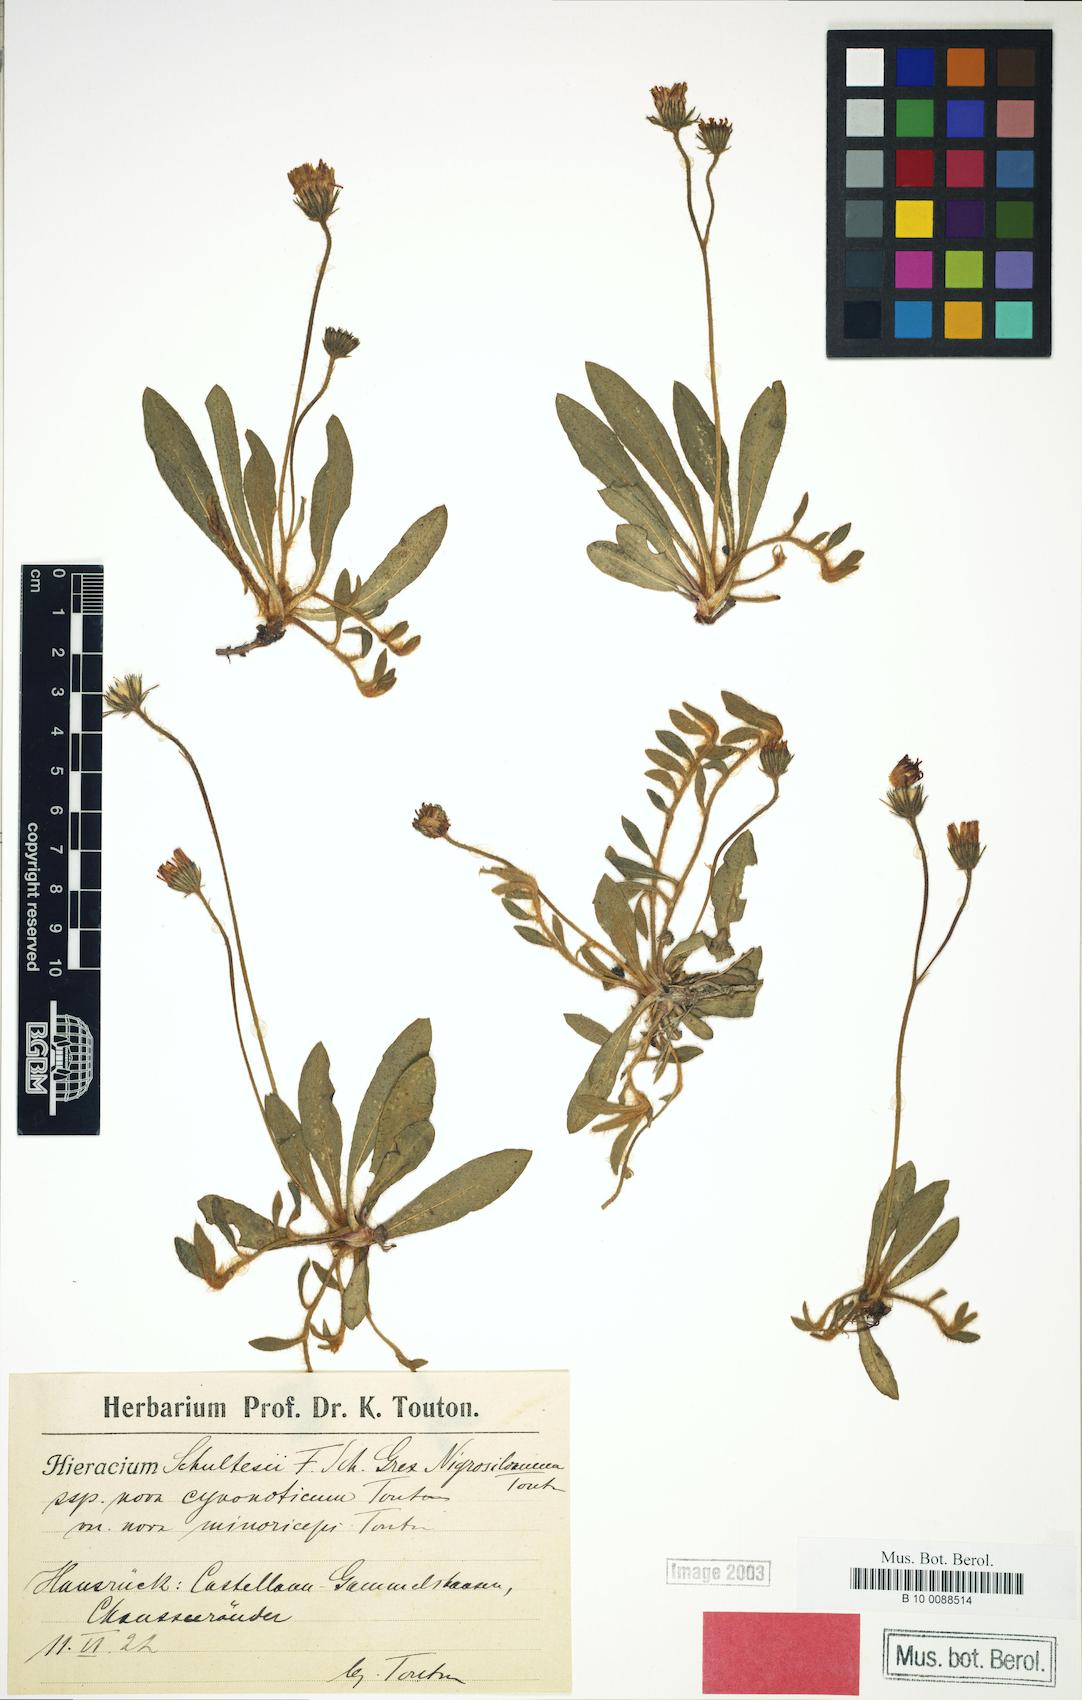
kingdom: Plantae
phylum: Tracheophyta
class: Magnoliopsida
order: Asterales
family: Asteraceae
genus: Pilosella
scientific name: Pilosella schultesii
